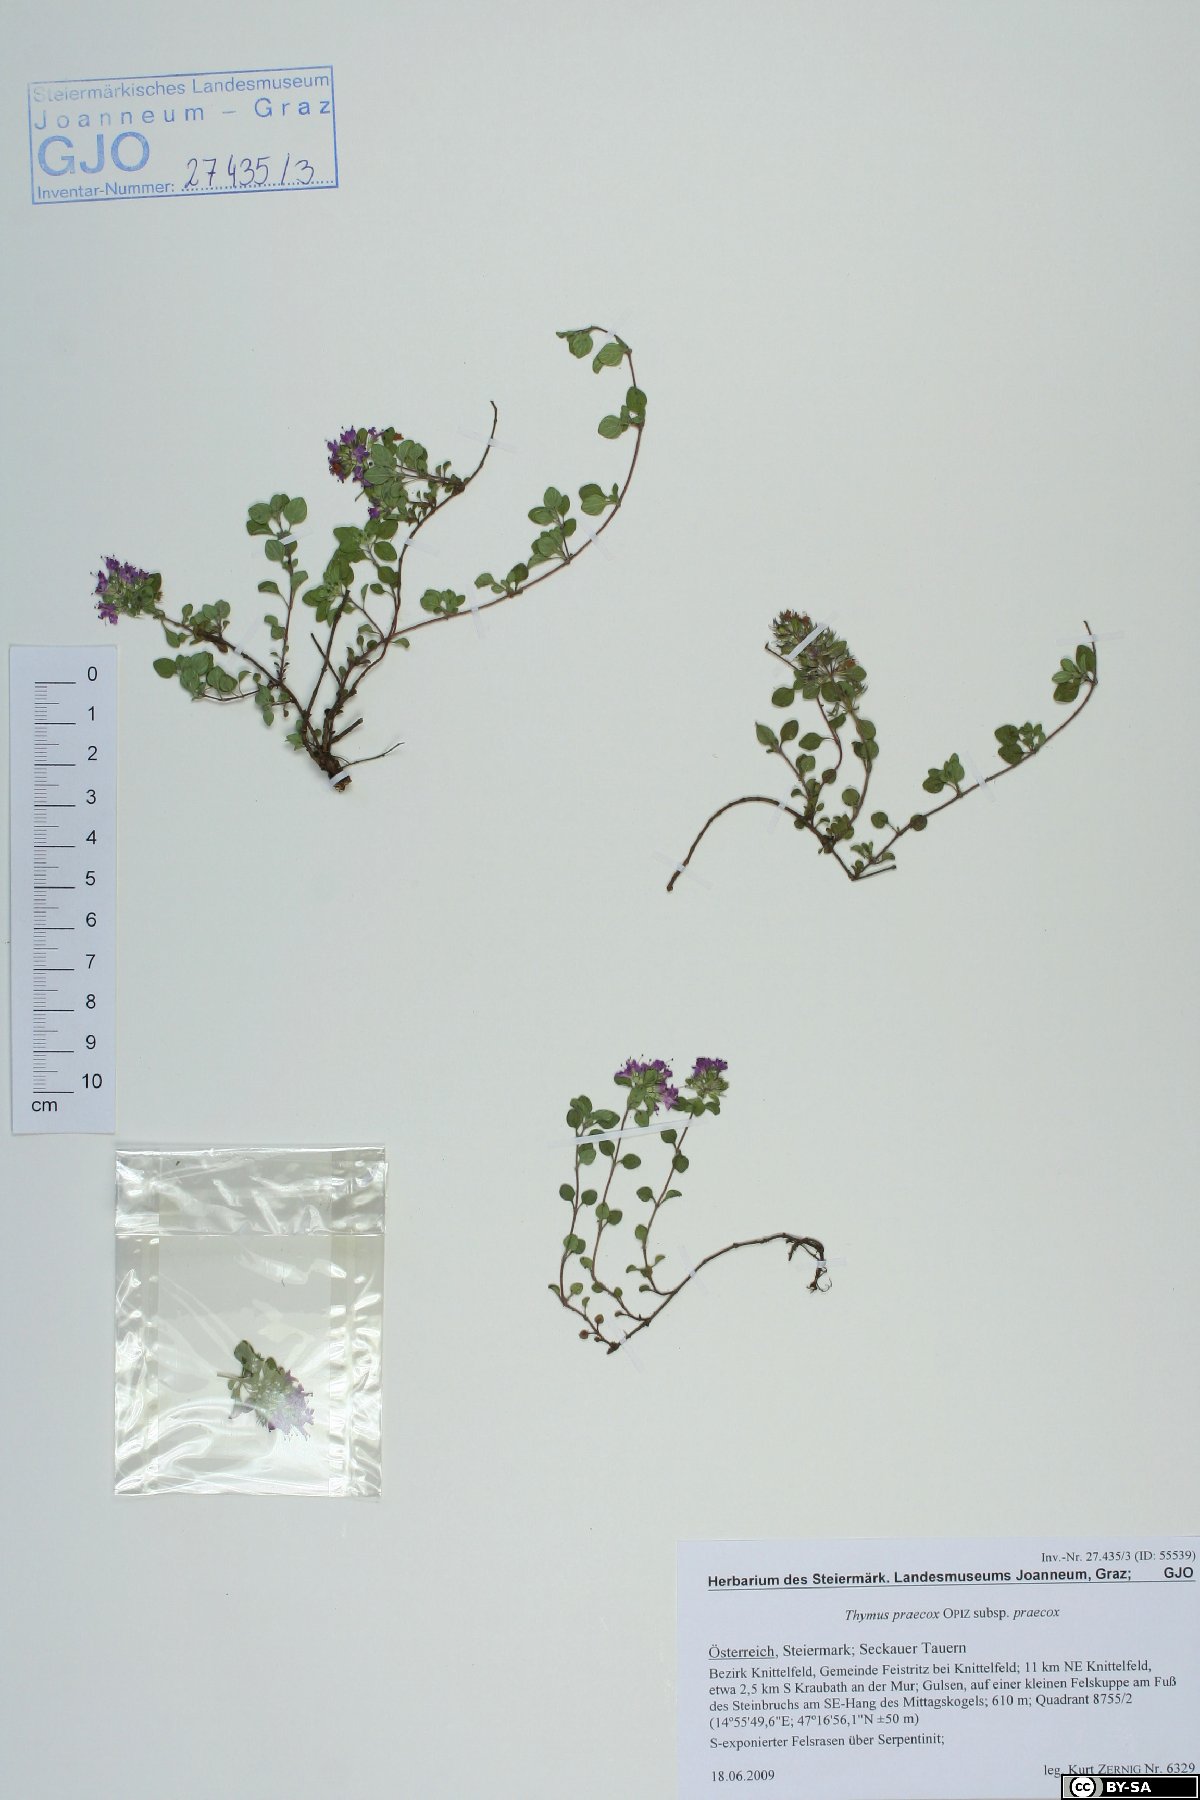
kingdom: Plantae
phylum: Tracheophyta
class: Magnoliopsida
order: Lamiales
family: Lamiaceae
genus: Thymus
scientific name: Thymus praecox
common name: Wild thyme
